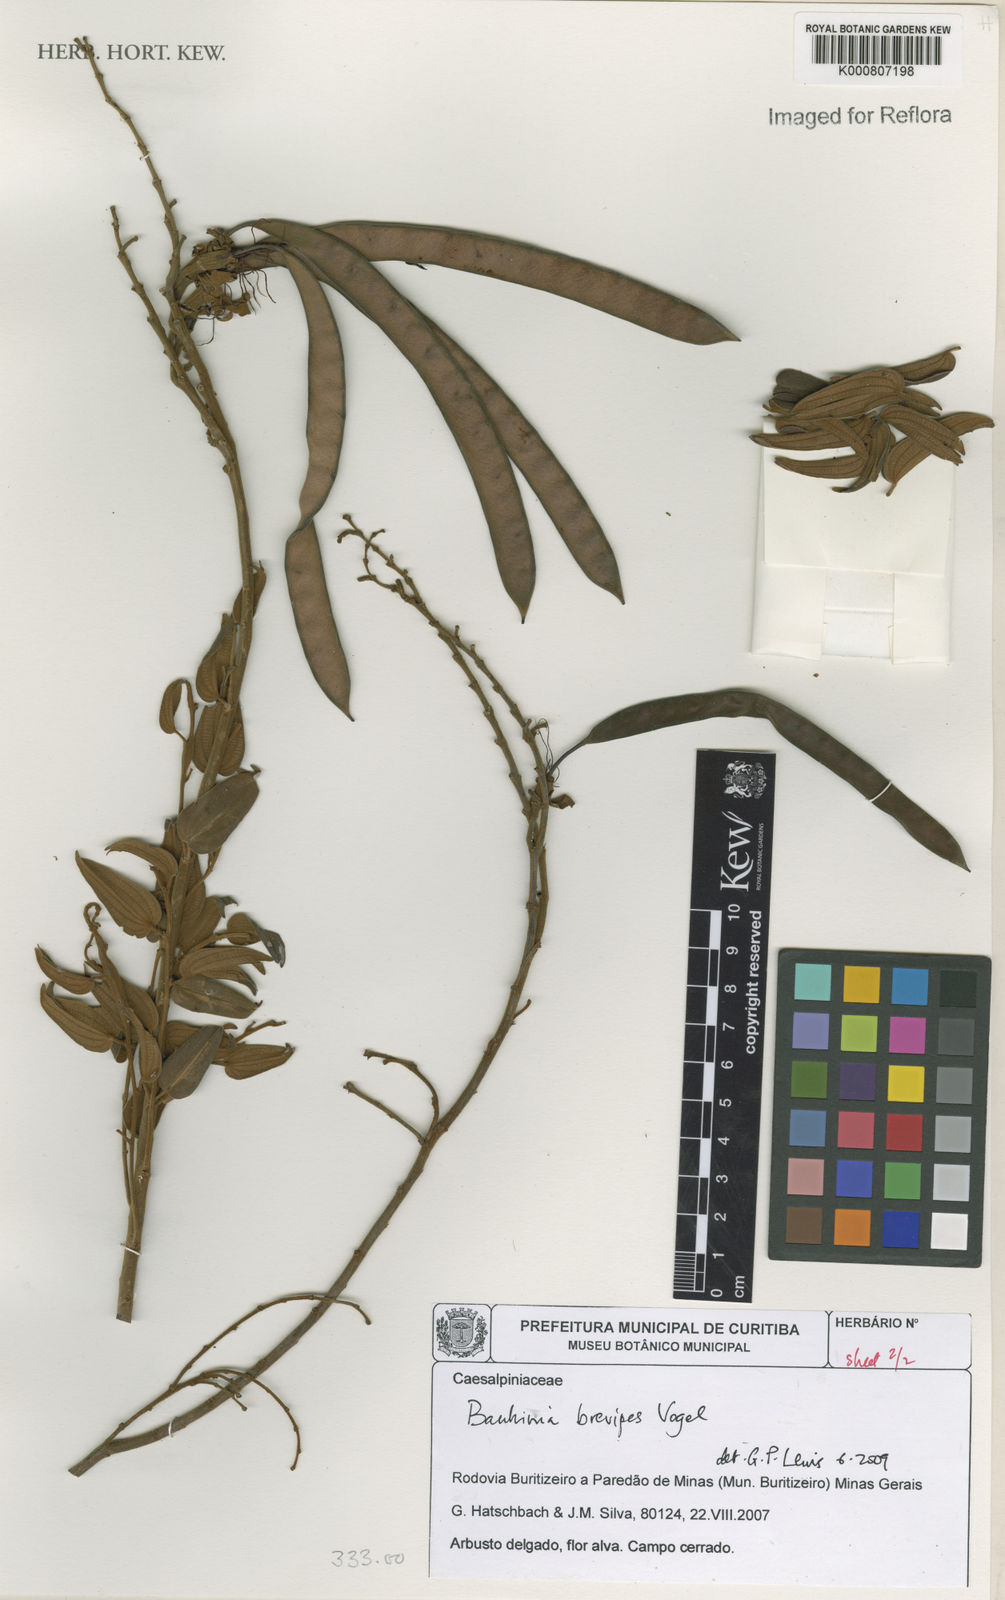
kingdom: Plantae
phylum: Tracheophyta
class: Magnoliopsida
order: Fabales
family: Fabaceae
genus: Bauhinia
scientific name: Bauhinia brevipes
